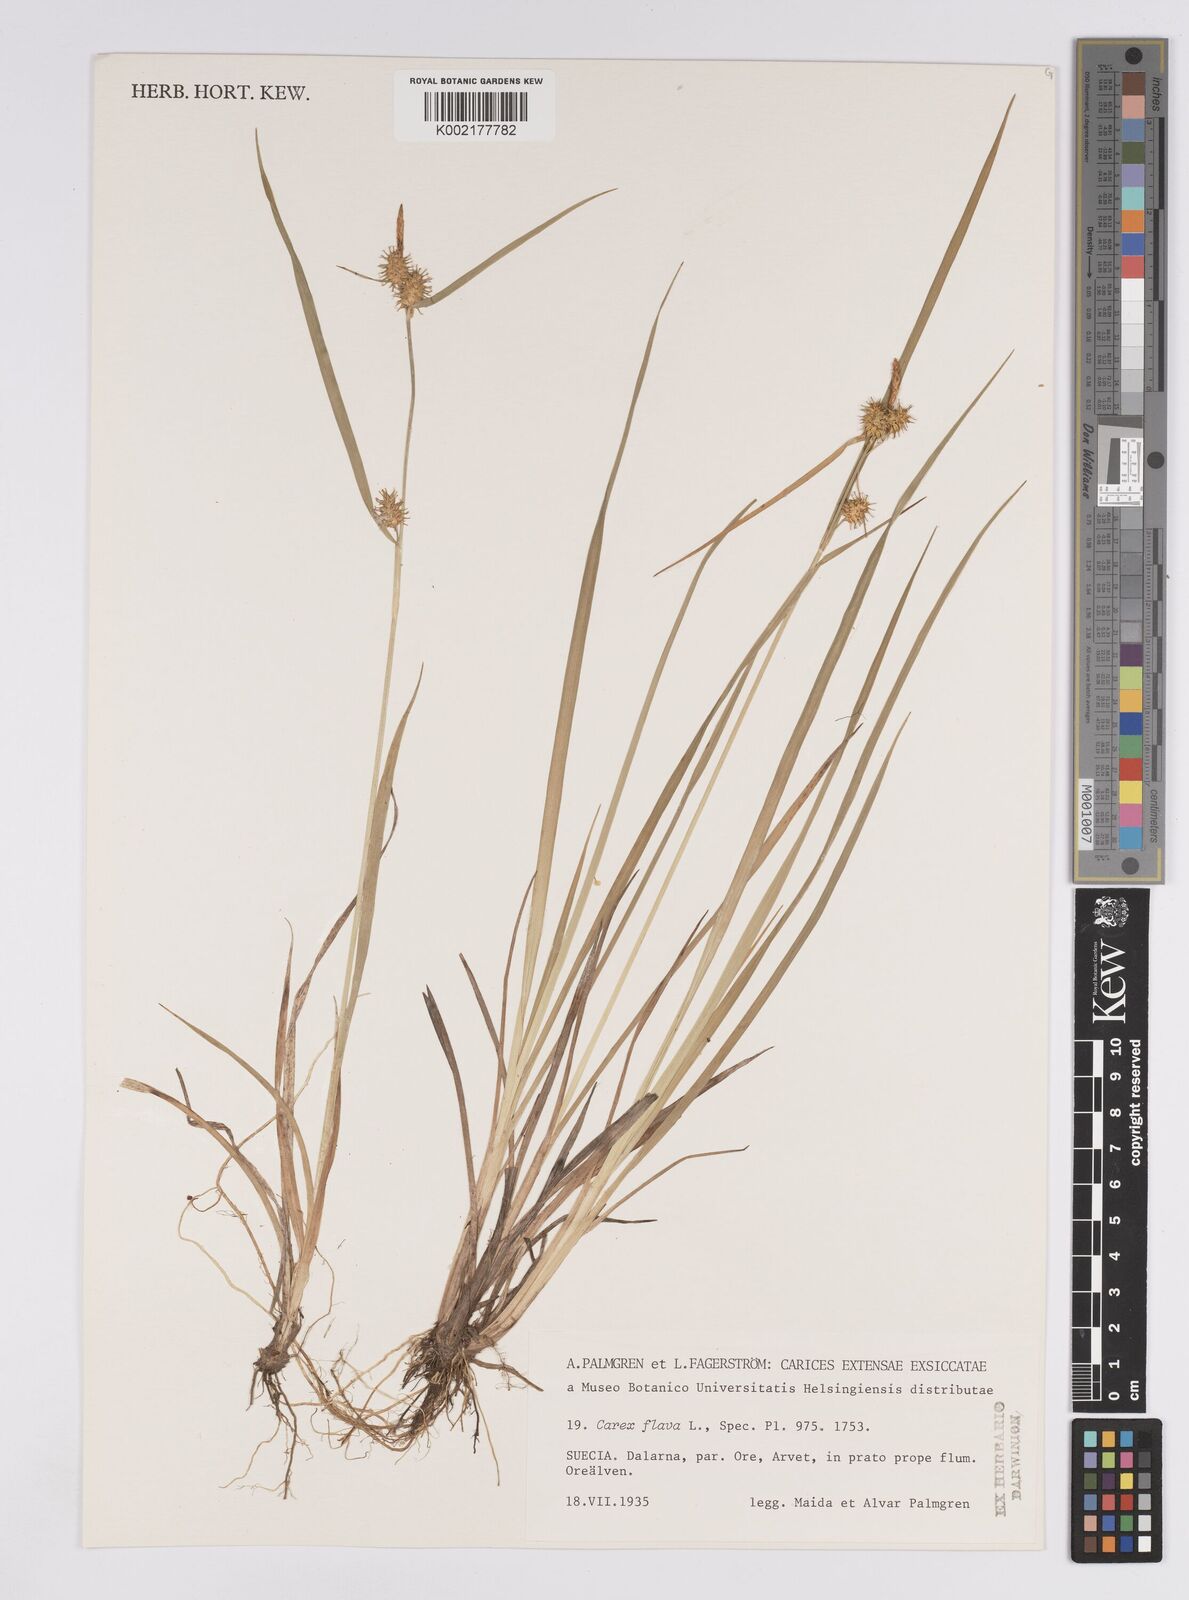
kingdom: Plantae
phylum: Tracheophyta
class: Liliopsida
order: Poales
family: Cyperaceae
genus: Carex
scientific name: Carex flava
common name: Large yellow-sedge
